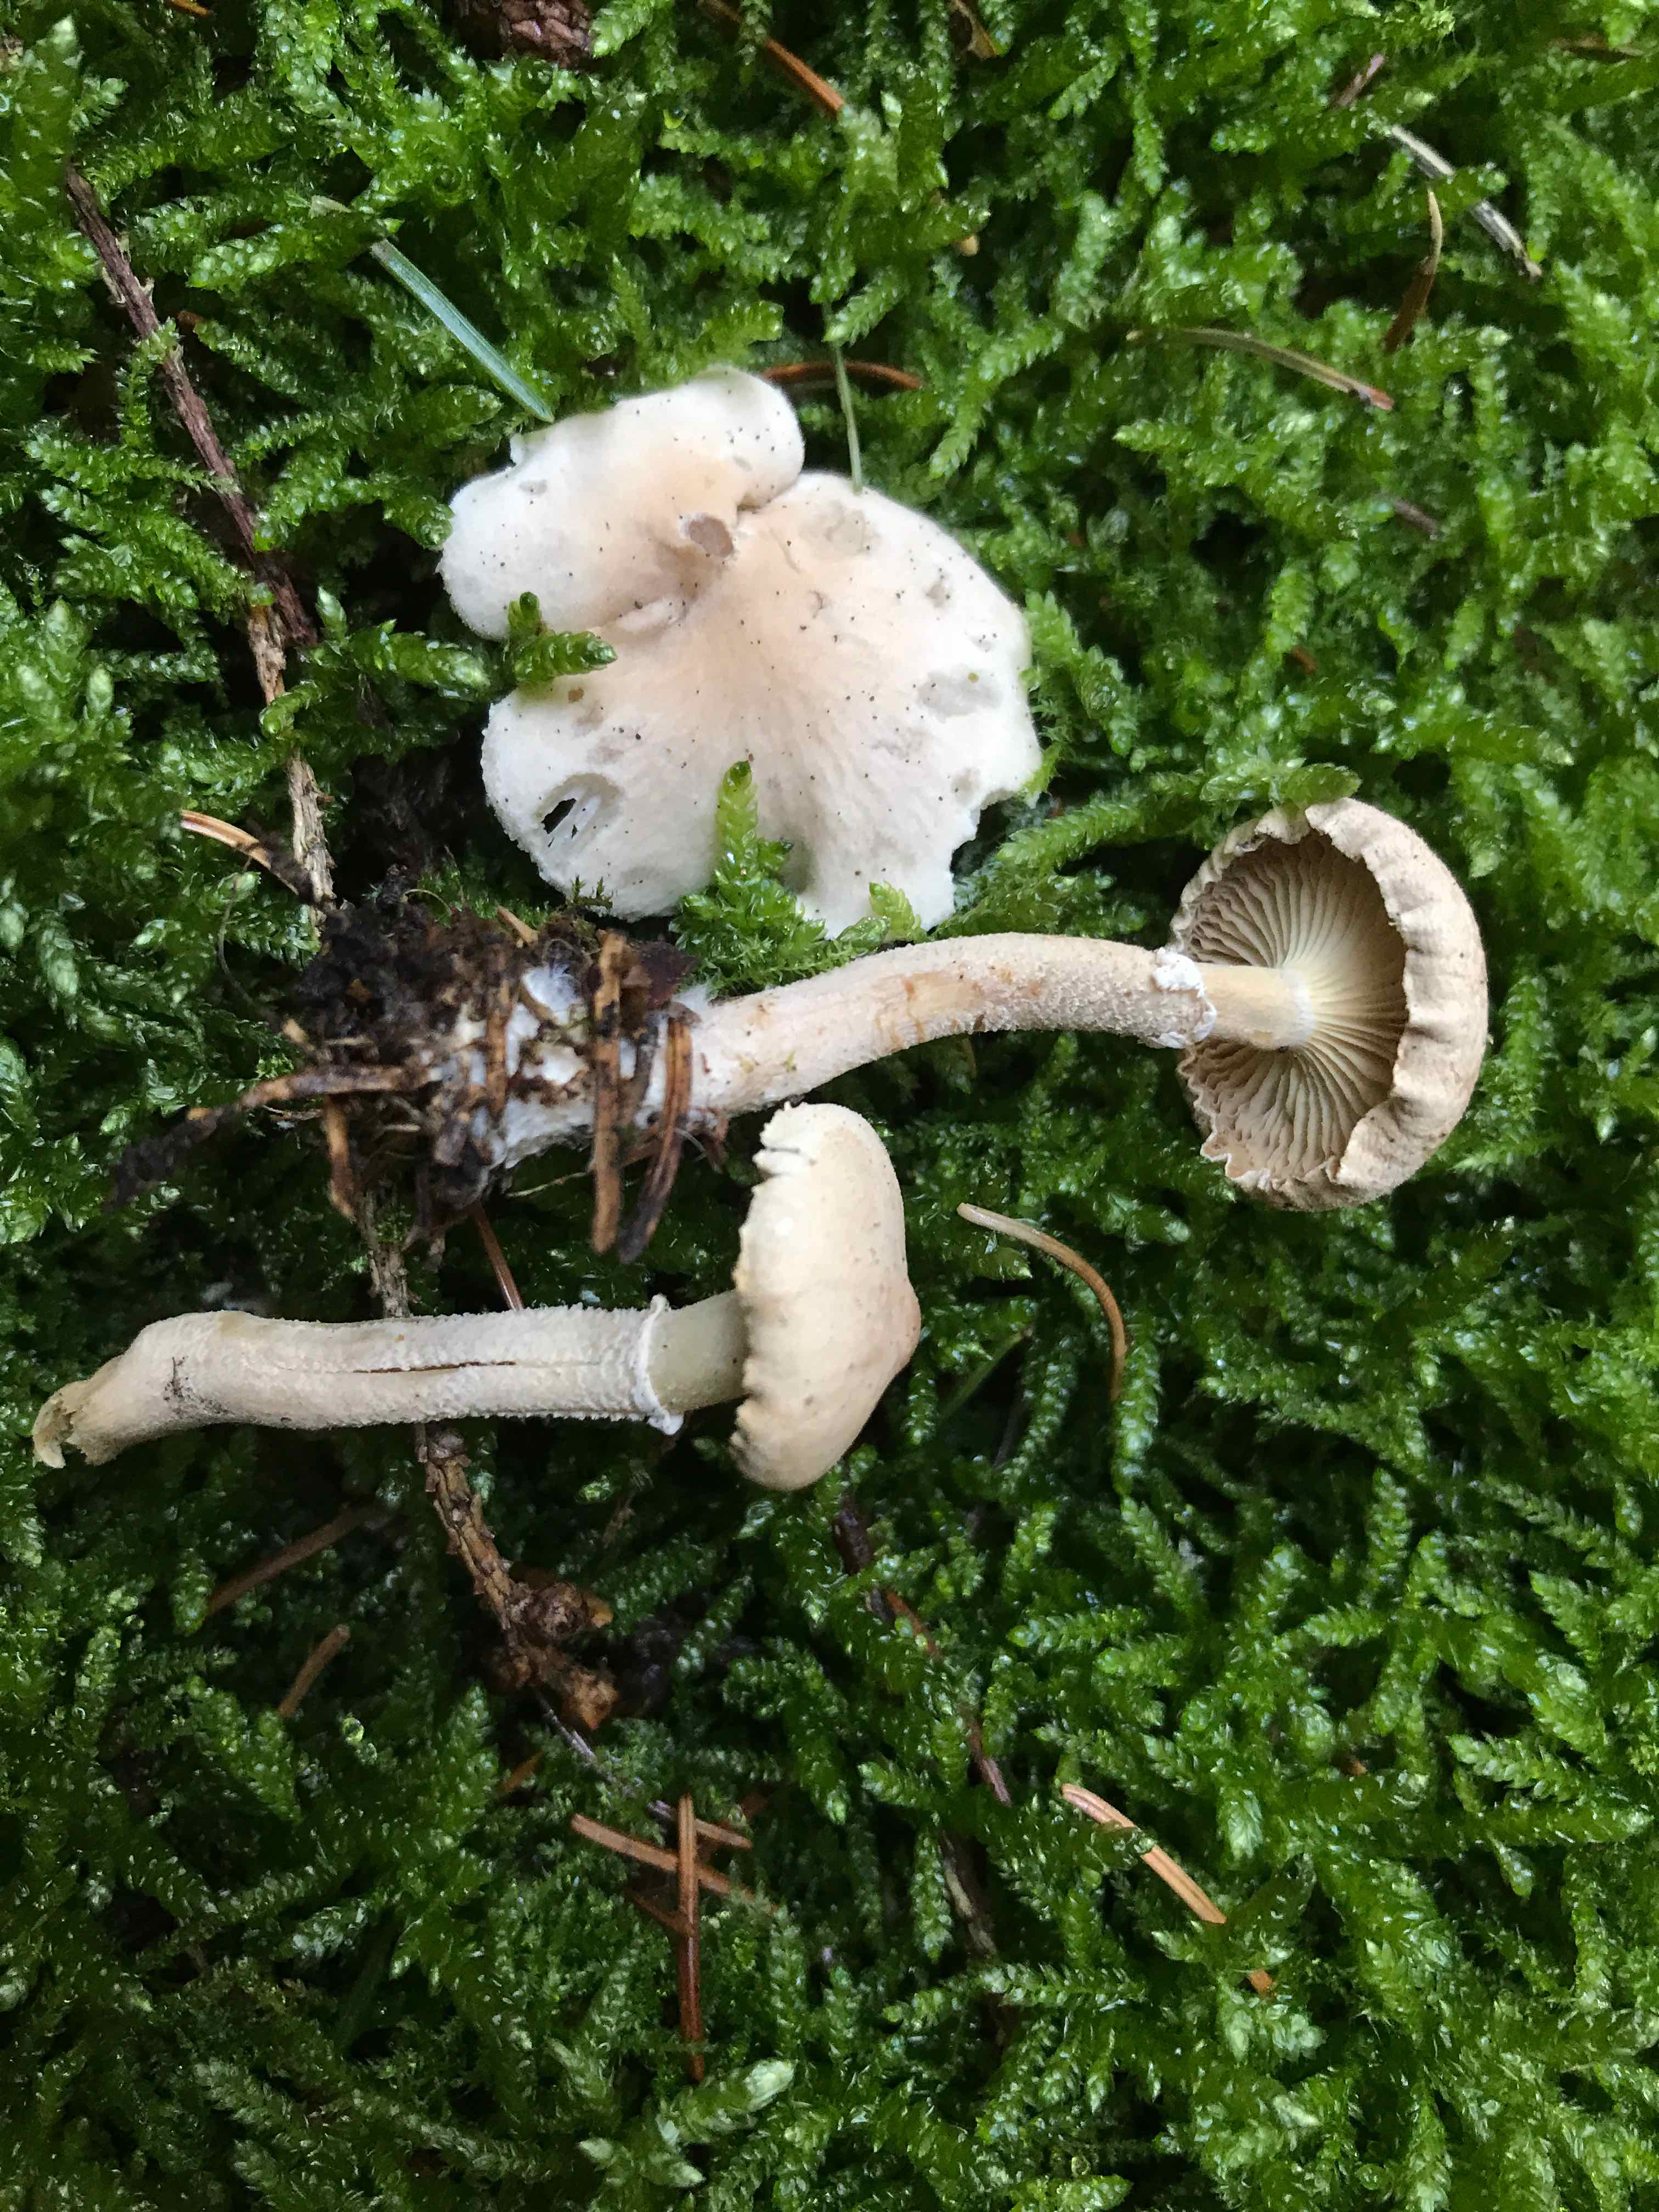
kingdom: Fungi
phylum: Basidiomycota
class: Agaricomycetes
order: Agaricales
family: Tricholomataceae
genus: Cystoderma
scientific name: Cystoderma carcharias
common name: rødgrå grynhat
